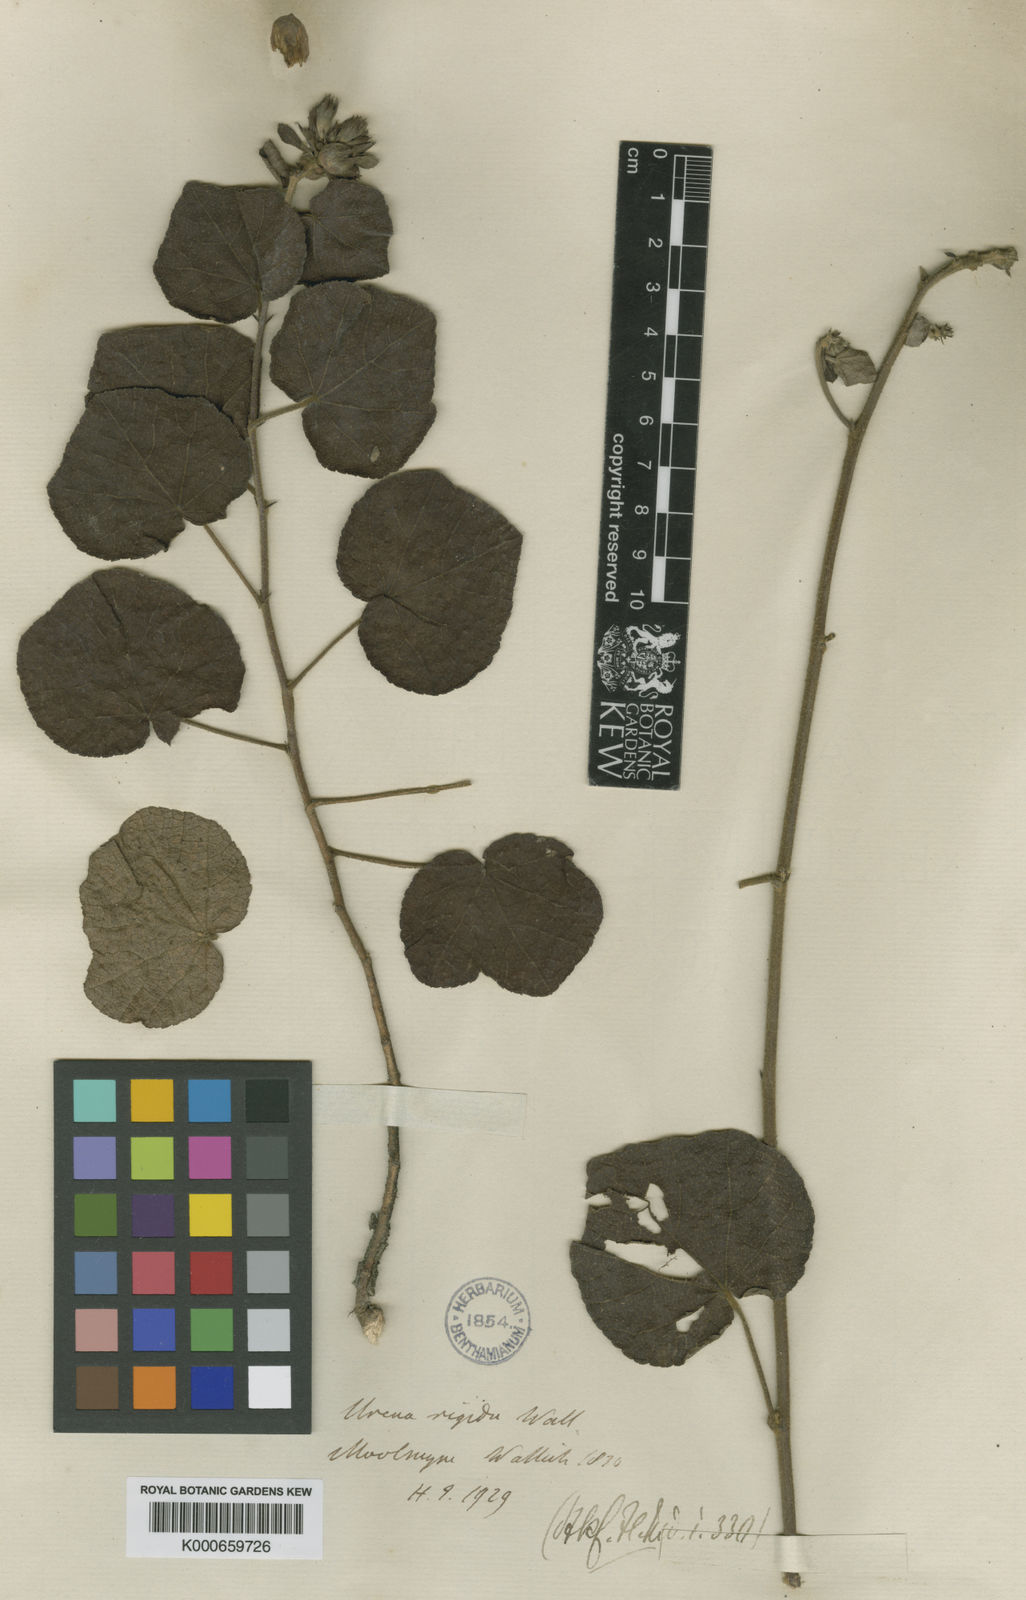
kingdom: Plantae
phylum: Tracheophyta
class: Magnoliopsida
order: Malvales
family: Malvaceae
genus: Urena
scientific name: Urena
